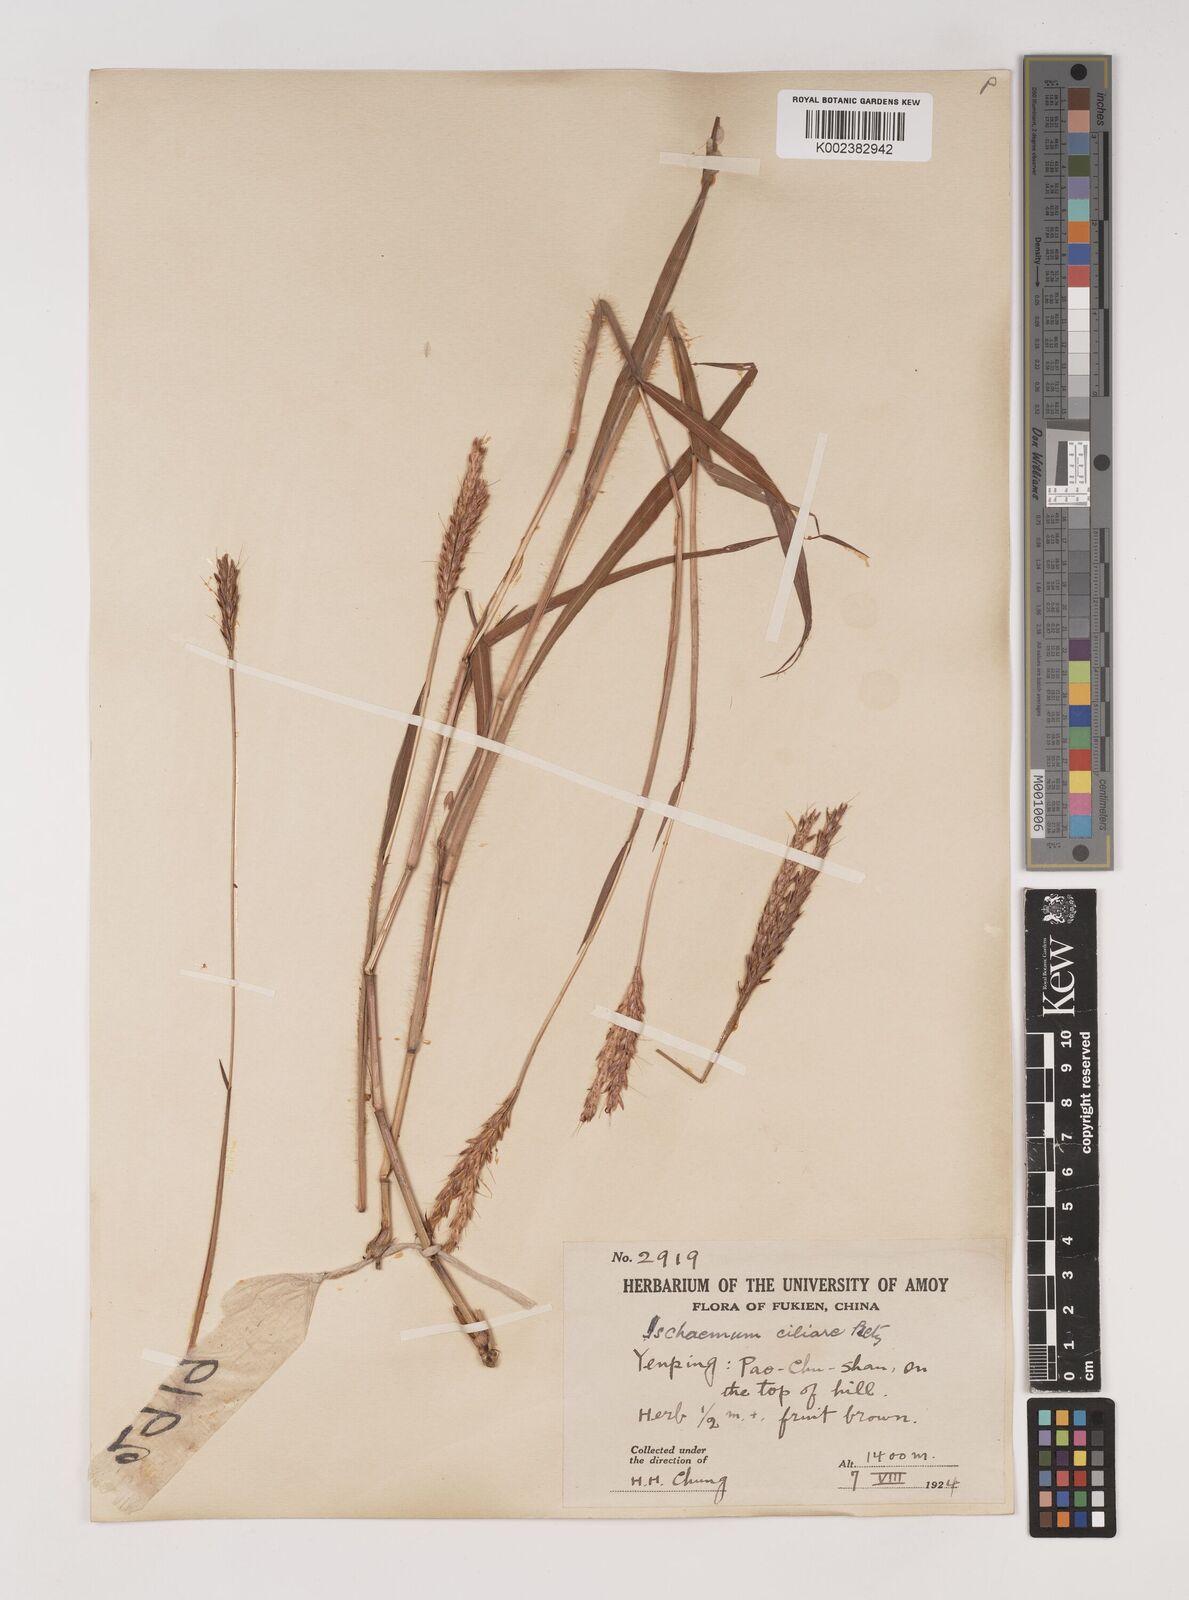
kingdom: Plantae
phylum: Tracheophyta
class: Liliopsida
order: Poales
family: Poaceae
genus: Polytrias
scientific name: Polytrias indica
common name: Indian murainagrass
